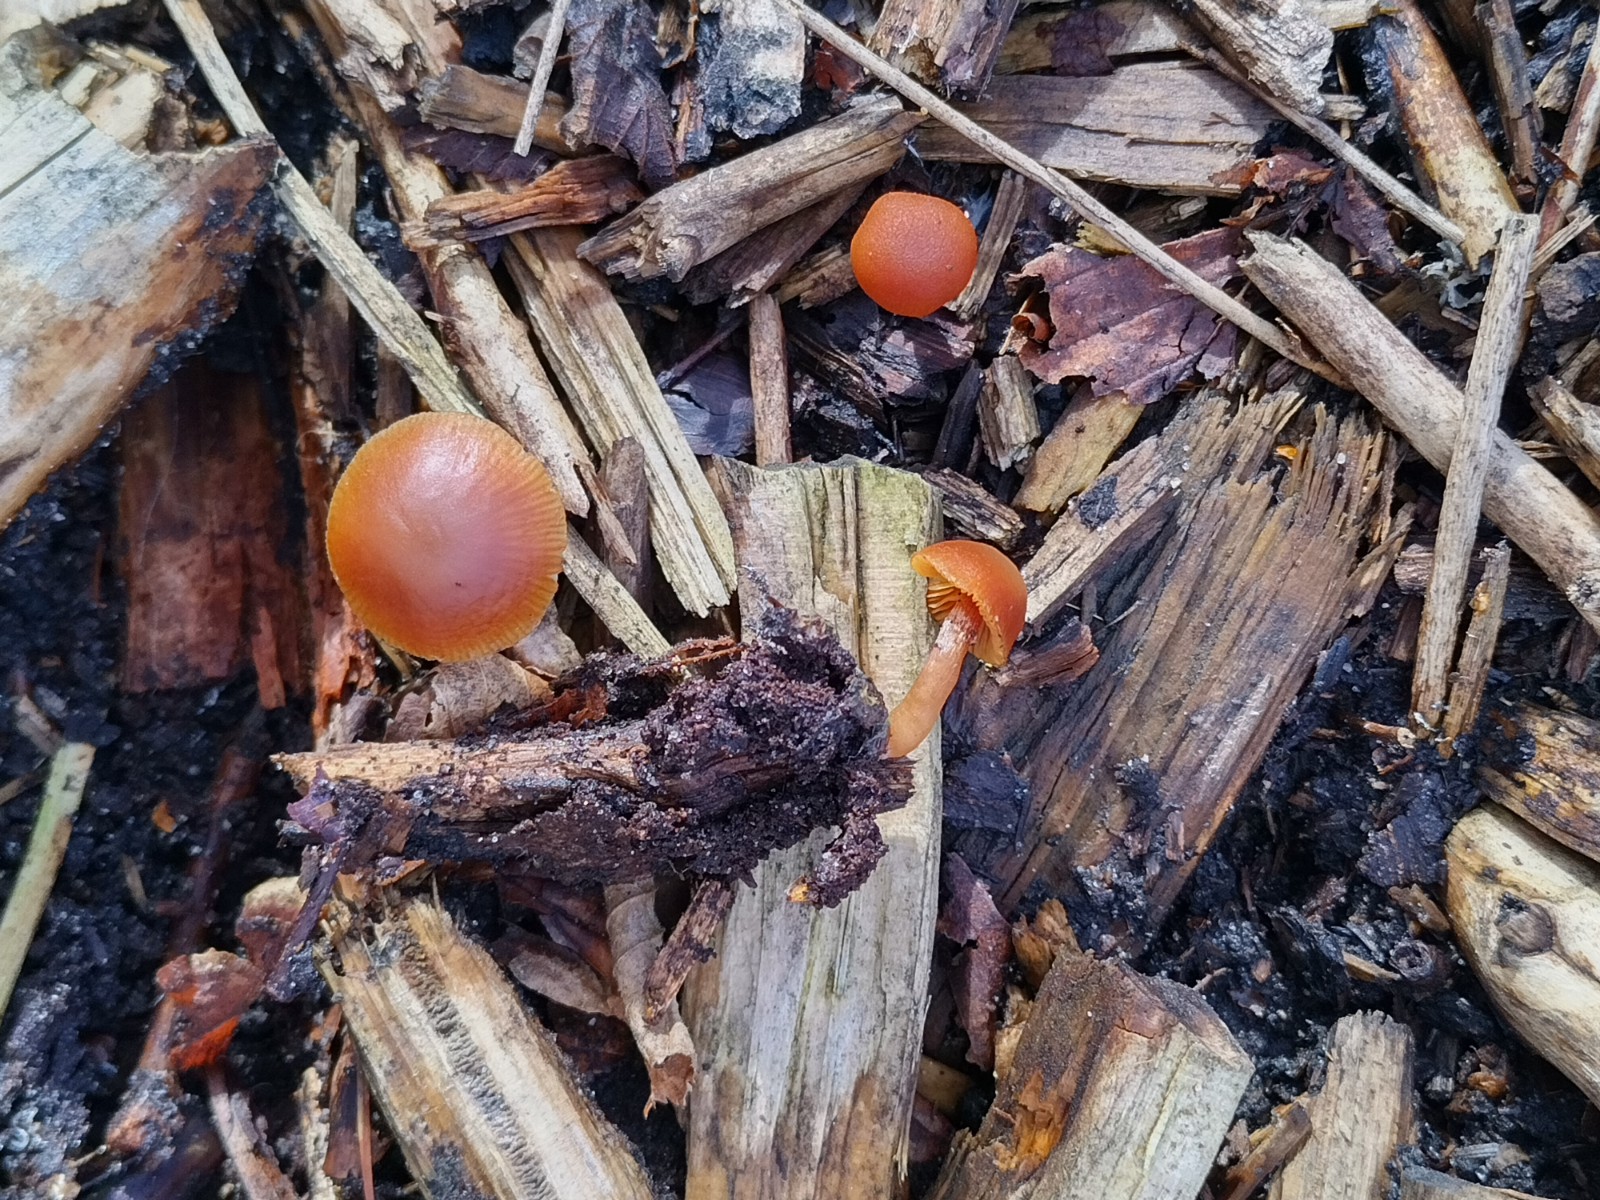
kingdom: Fungi
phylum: Basidiomycota
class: Agaricomycetes
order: Agaricales
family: Tubariaceae
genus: Tubaria
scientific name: Tubaria furfuracea
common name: kliddet fnughat
